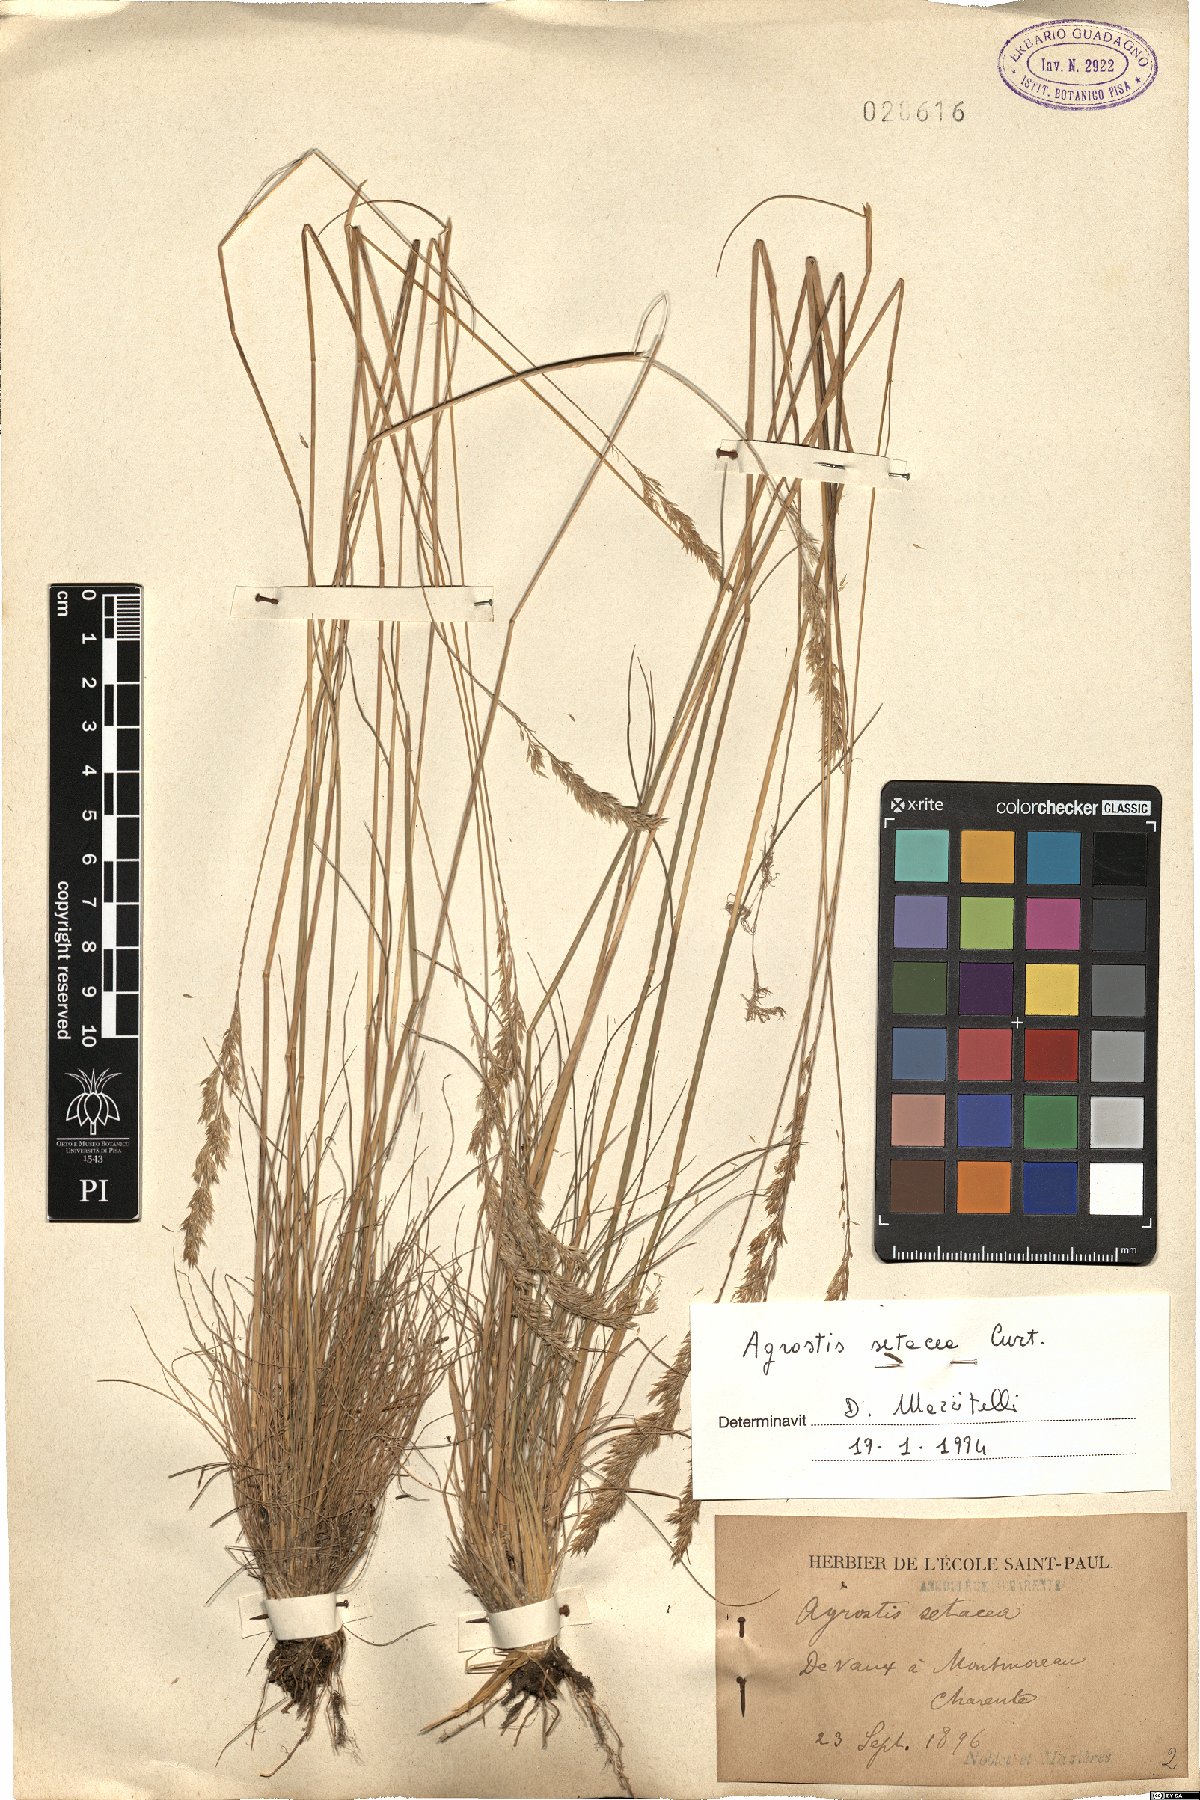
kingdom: Plantae
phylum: Tracheophyta
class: Liliopsida
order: Poales
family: Poaceae
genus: Alpagrostis
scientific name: Alpagrostis setacea
